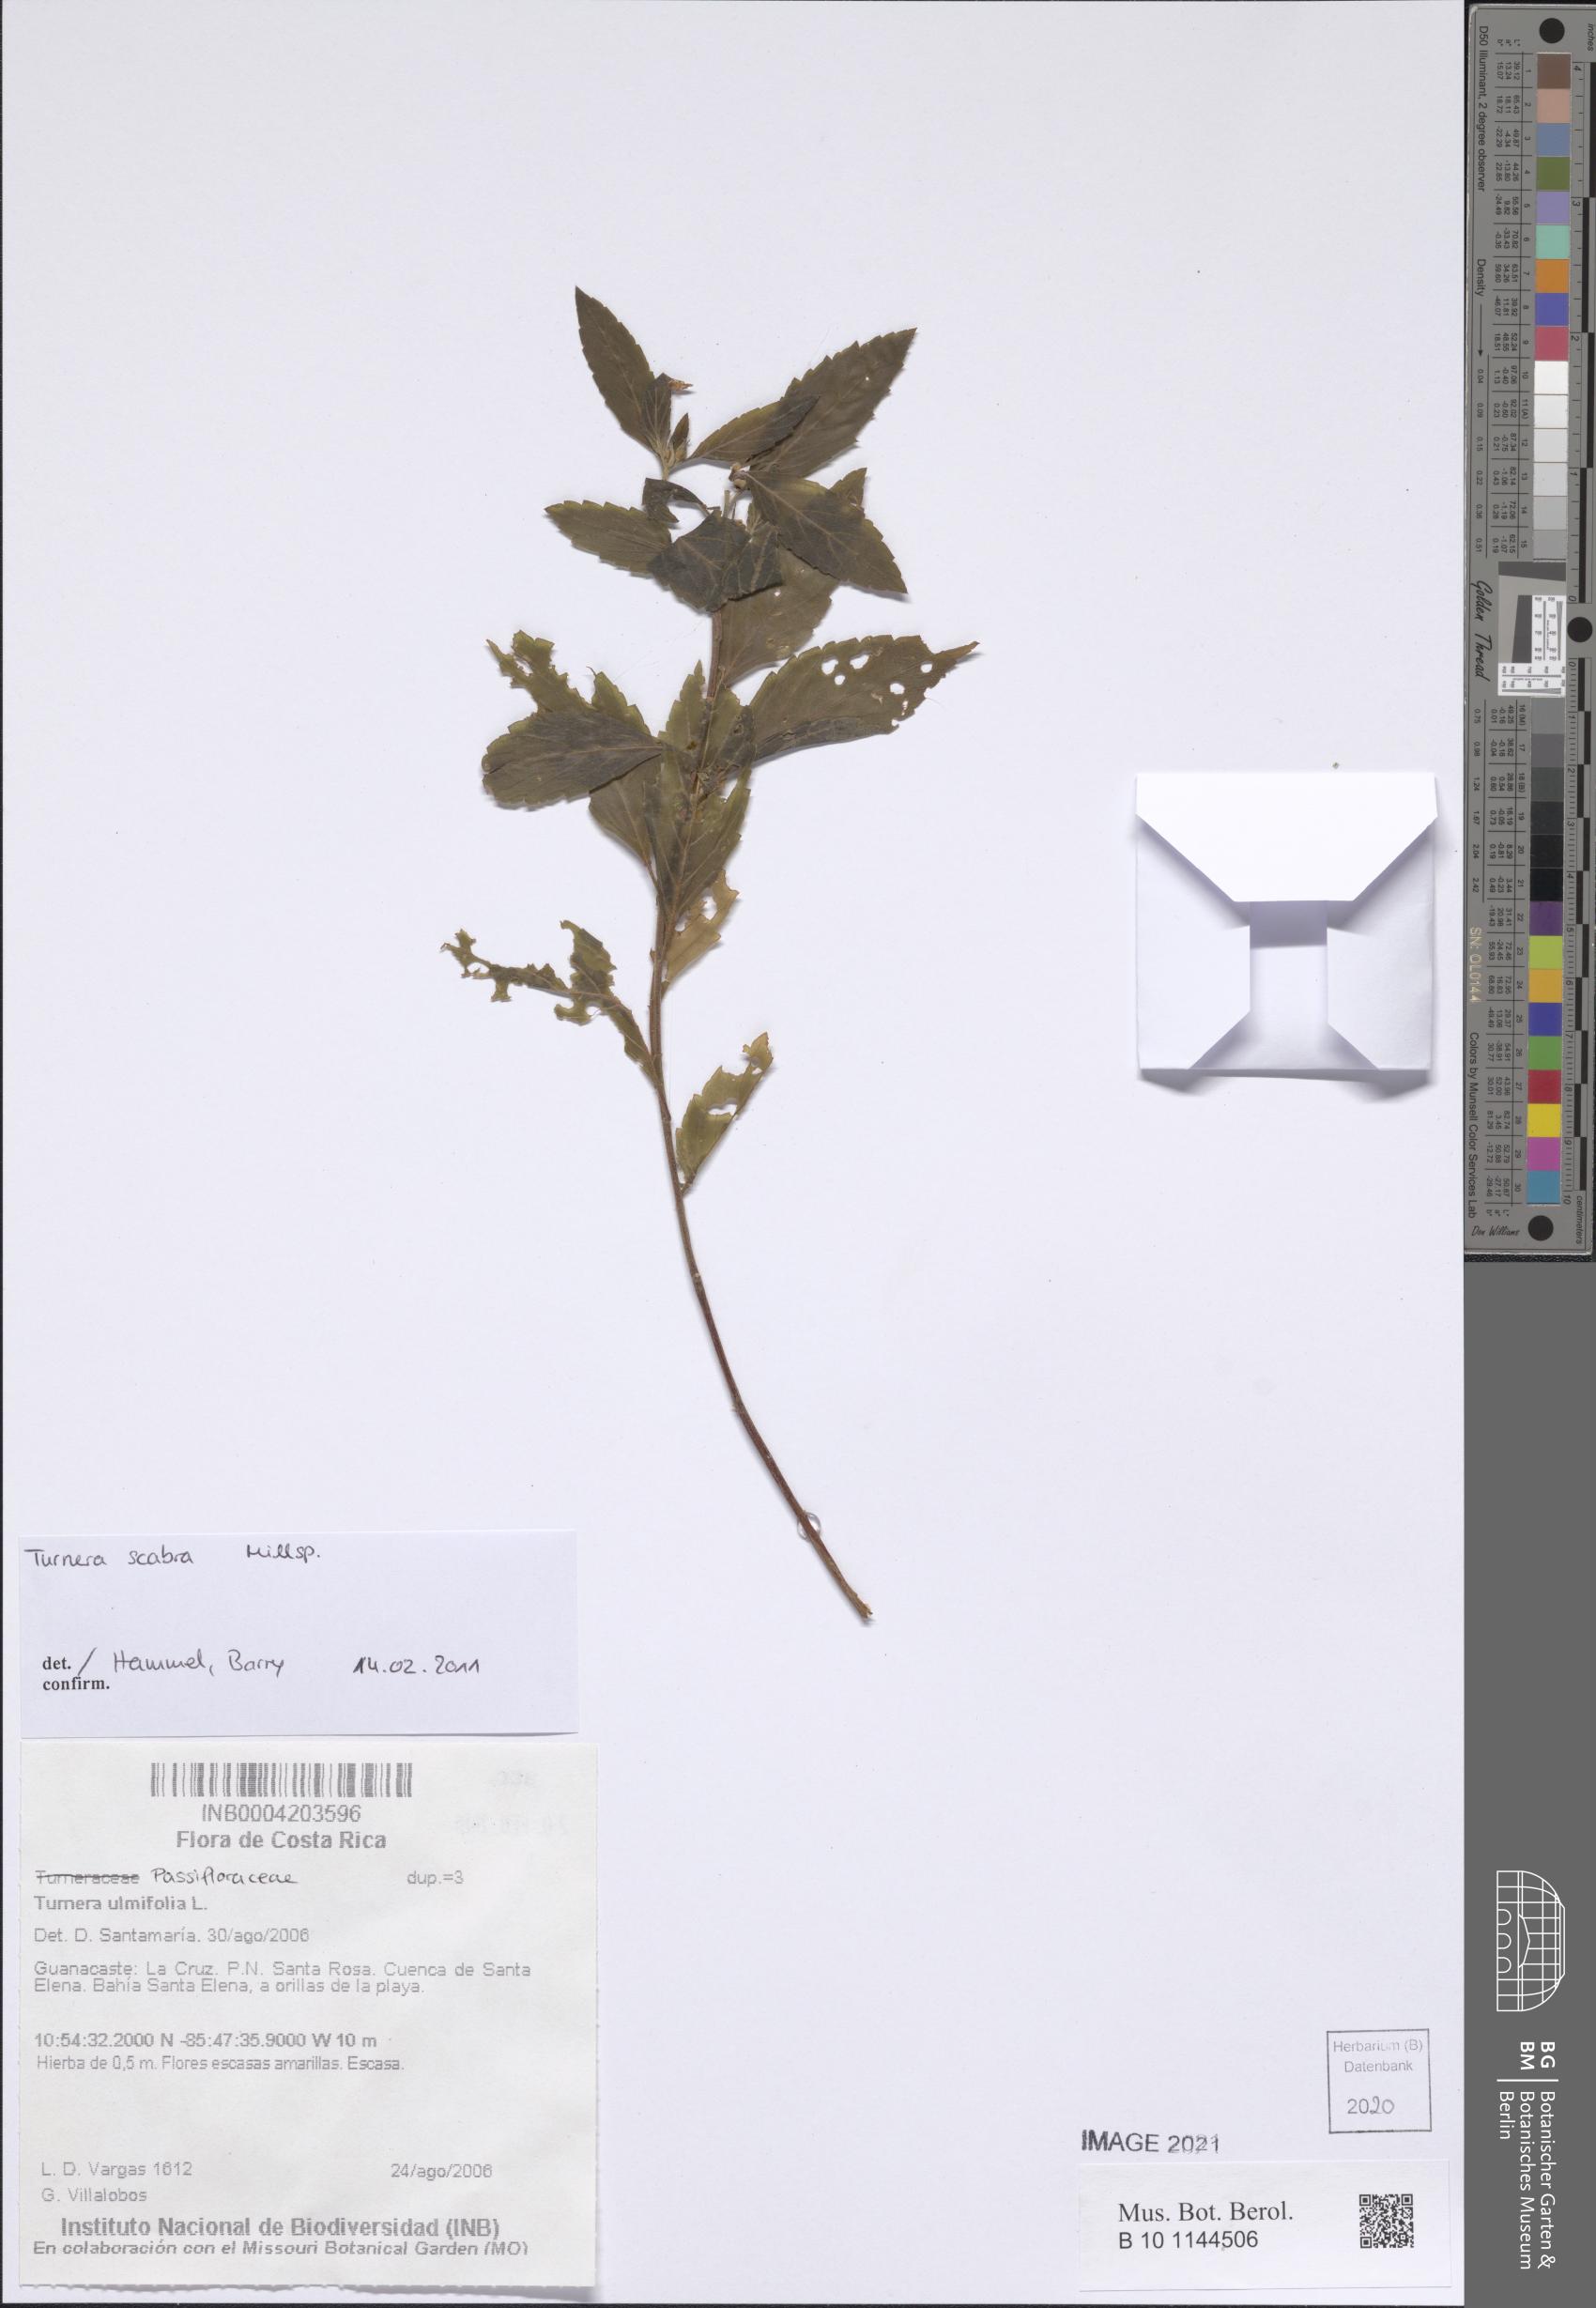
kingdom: Plantae
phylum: Tracheophyta
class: Magnoliopsida
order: Malpighiales
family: Turneraceae
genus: Turnera
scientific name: Turnera scabra
